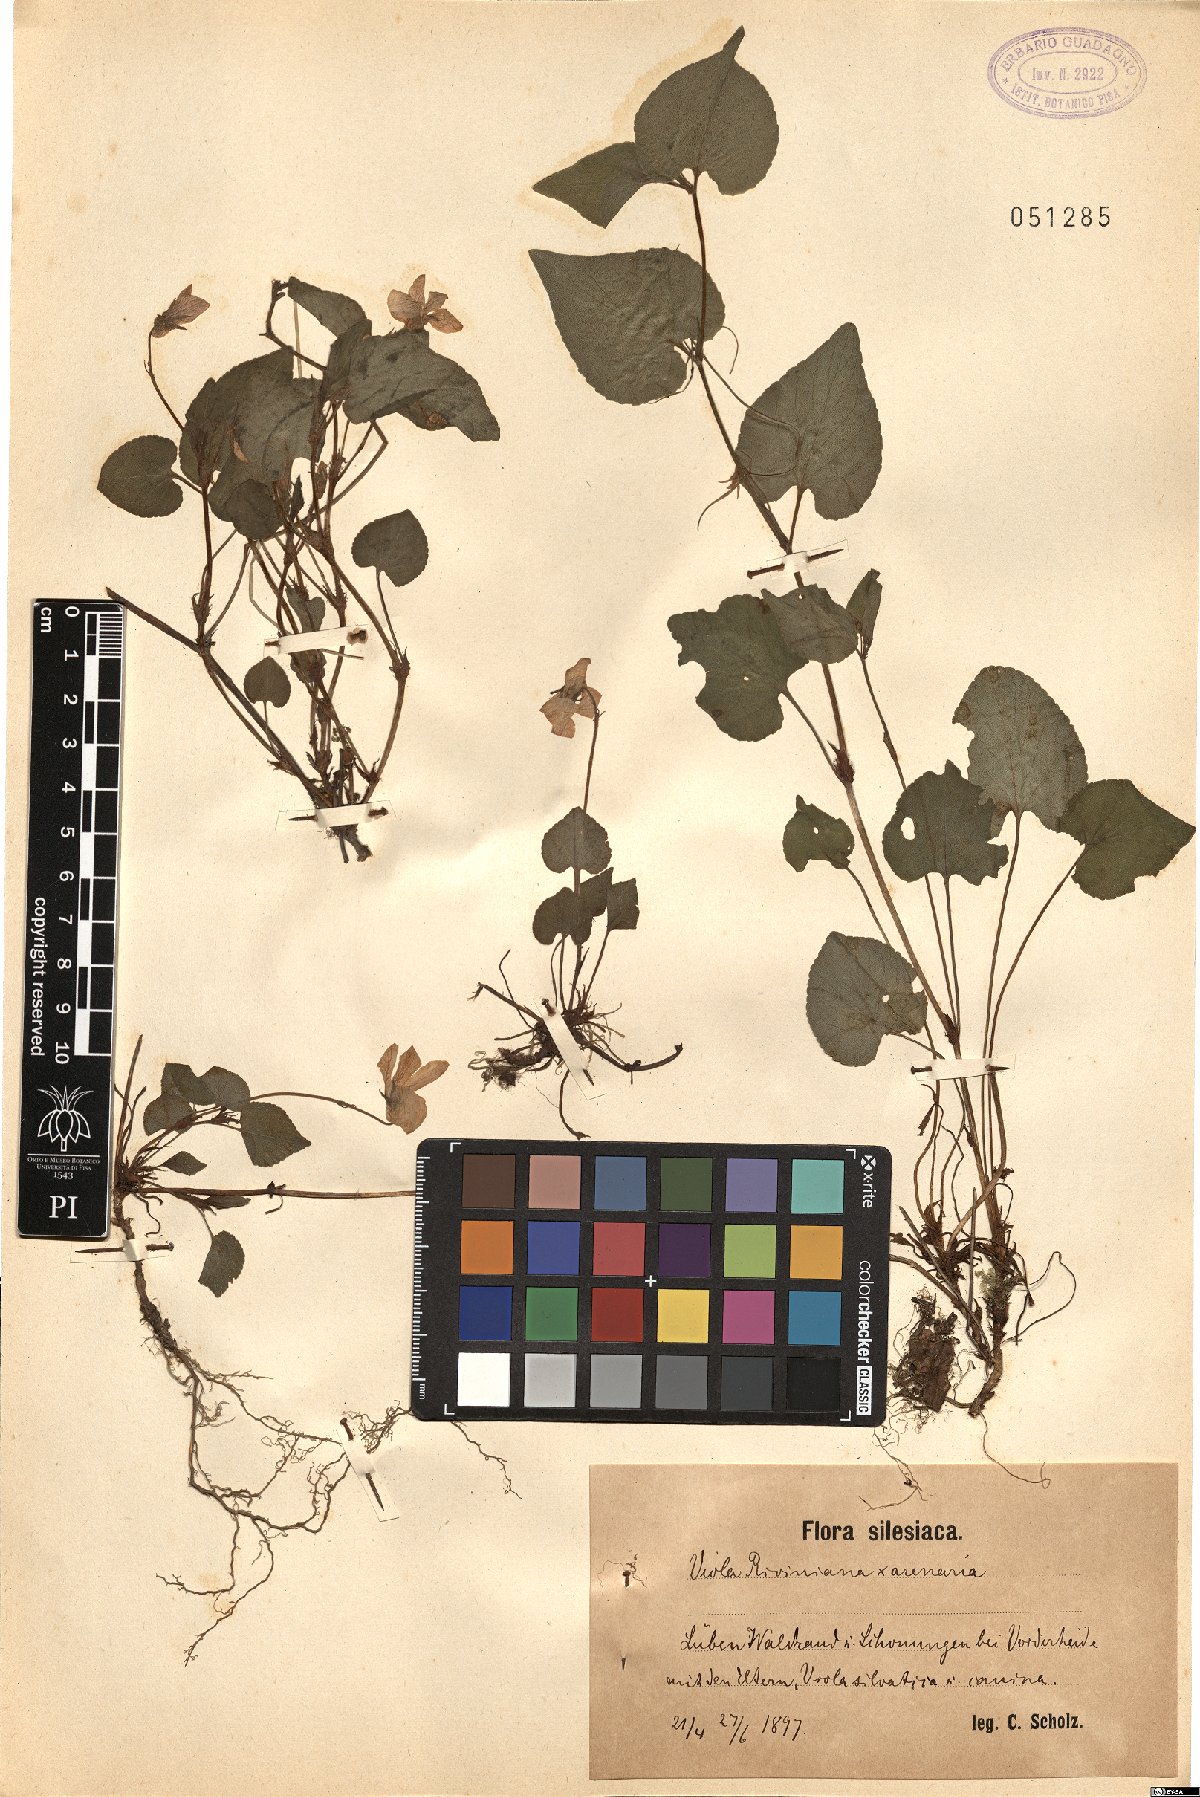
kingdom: Plantae
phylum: Tracheophyta
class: Magnoliopsida
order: Malpighiales
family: Violaceae
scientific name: Violaceae
